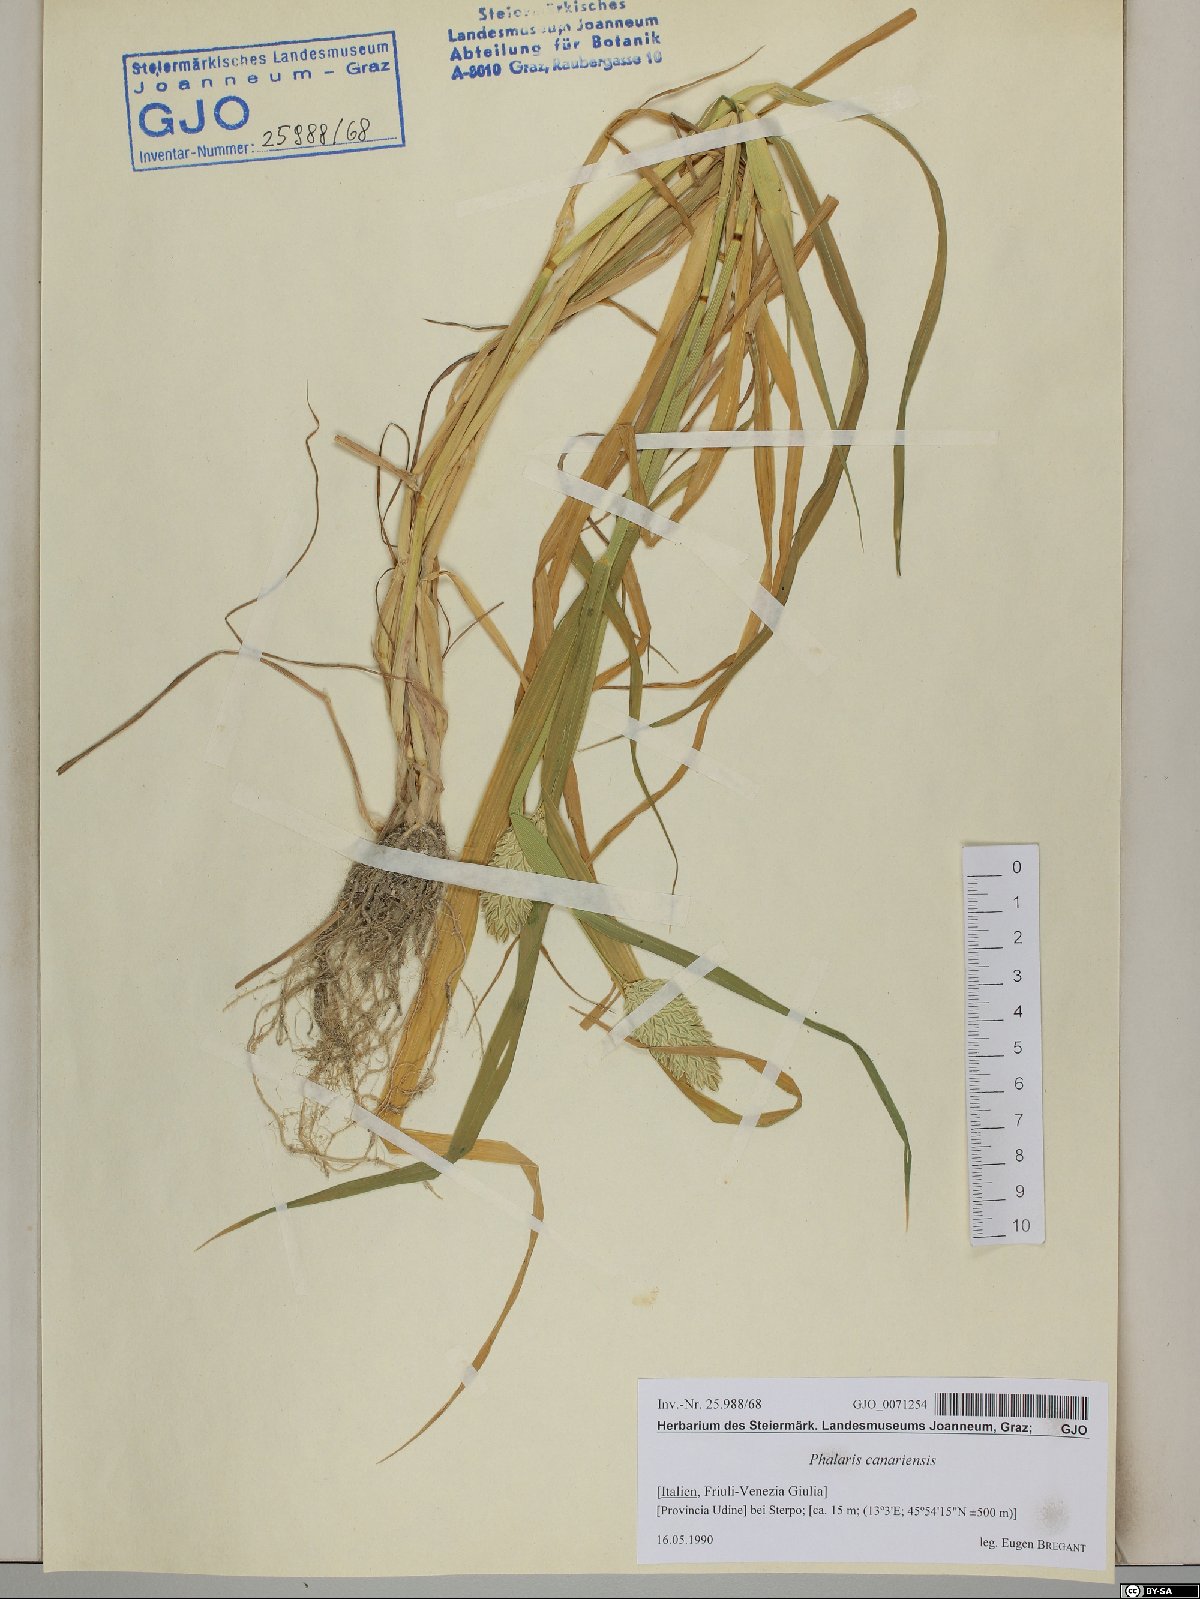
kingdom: Plantae
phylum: Tracheophyta
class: Liliopsida
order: Poales
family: Poaceae
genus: Phalaris
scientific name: Phalaris canariensis
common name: Annual canarygrass
